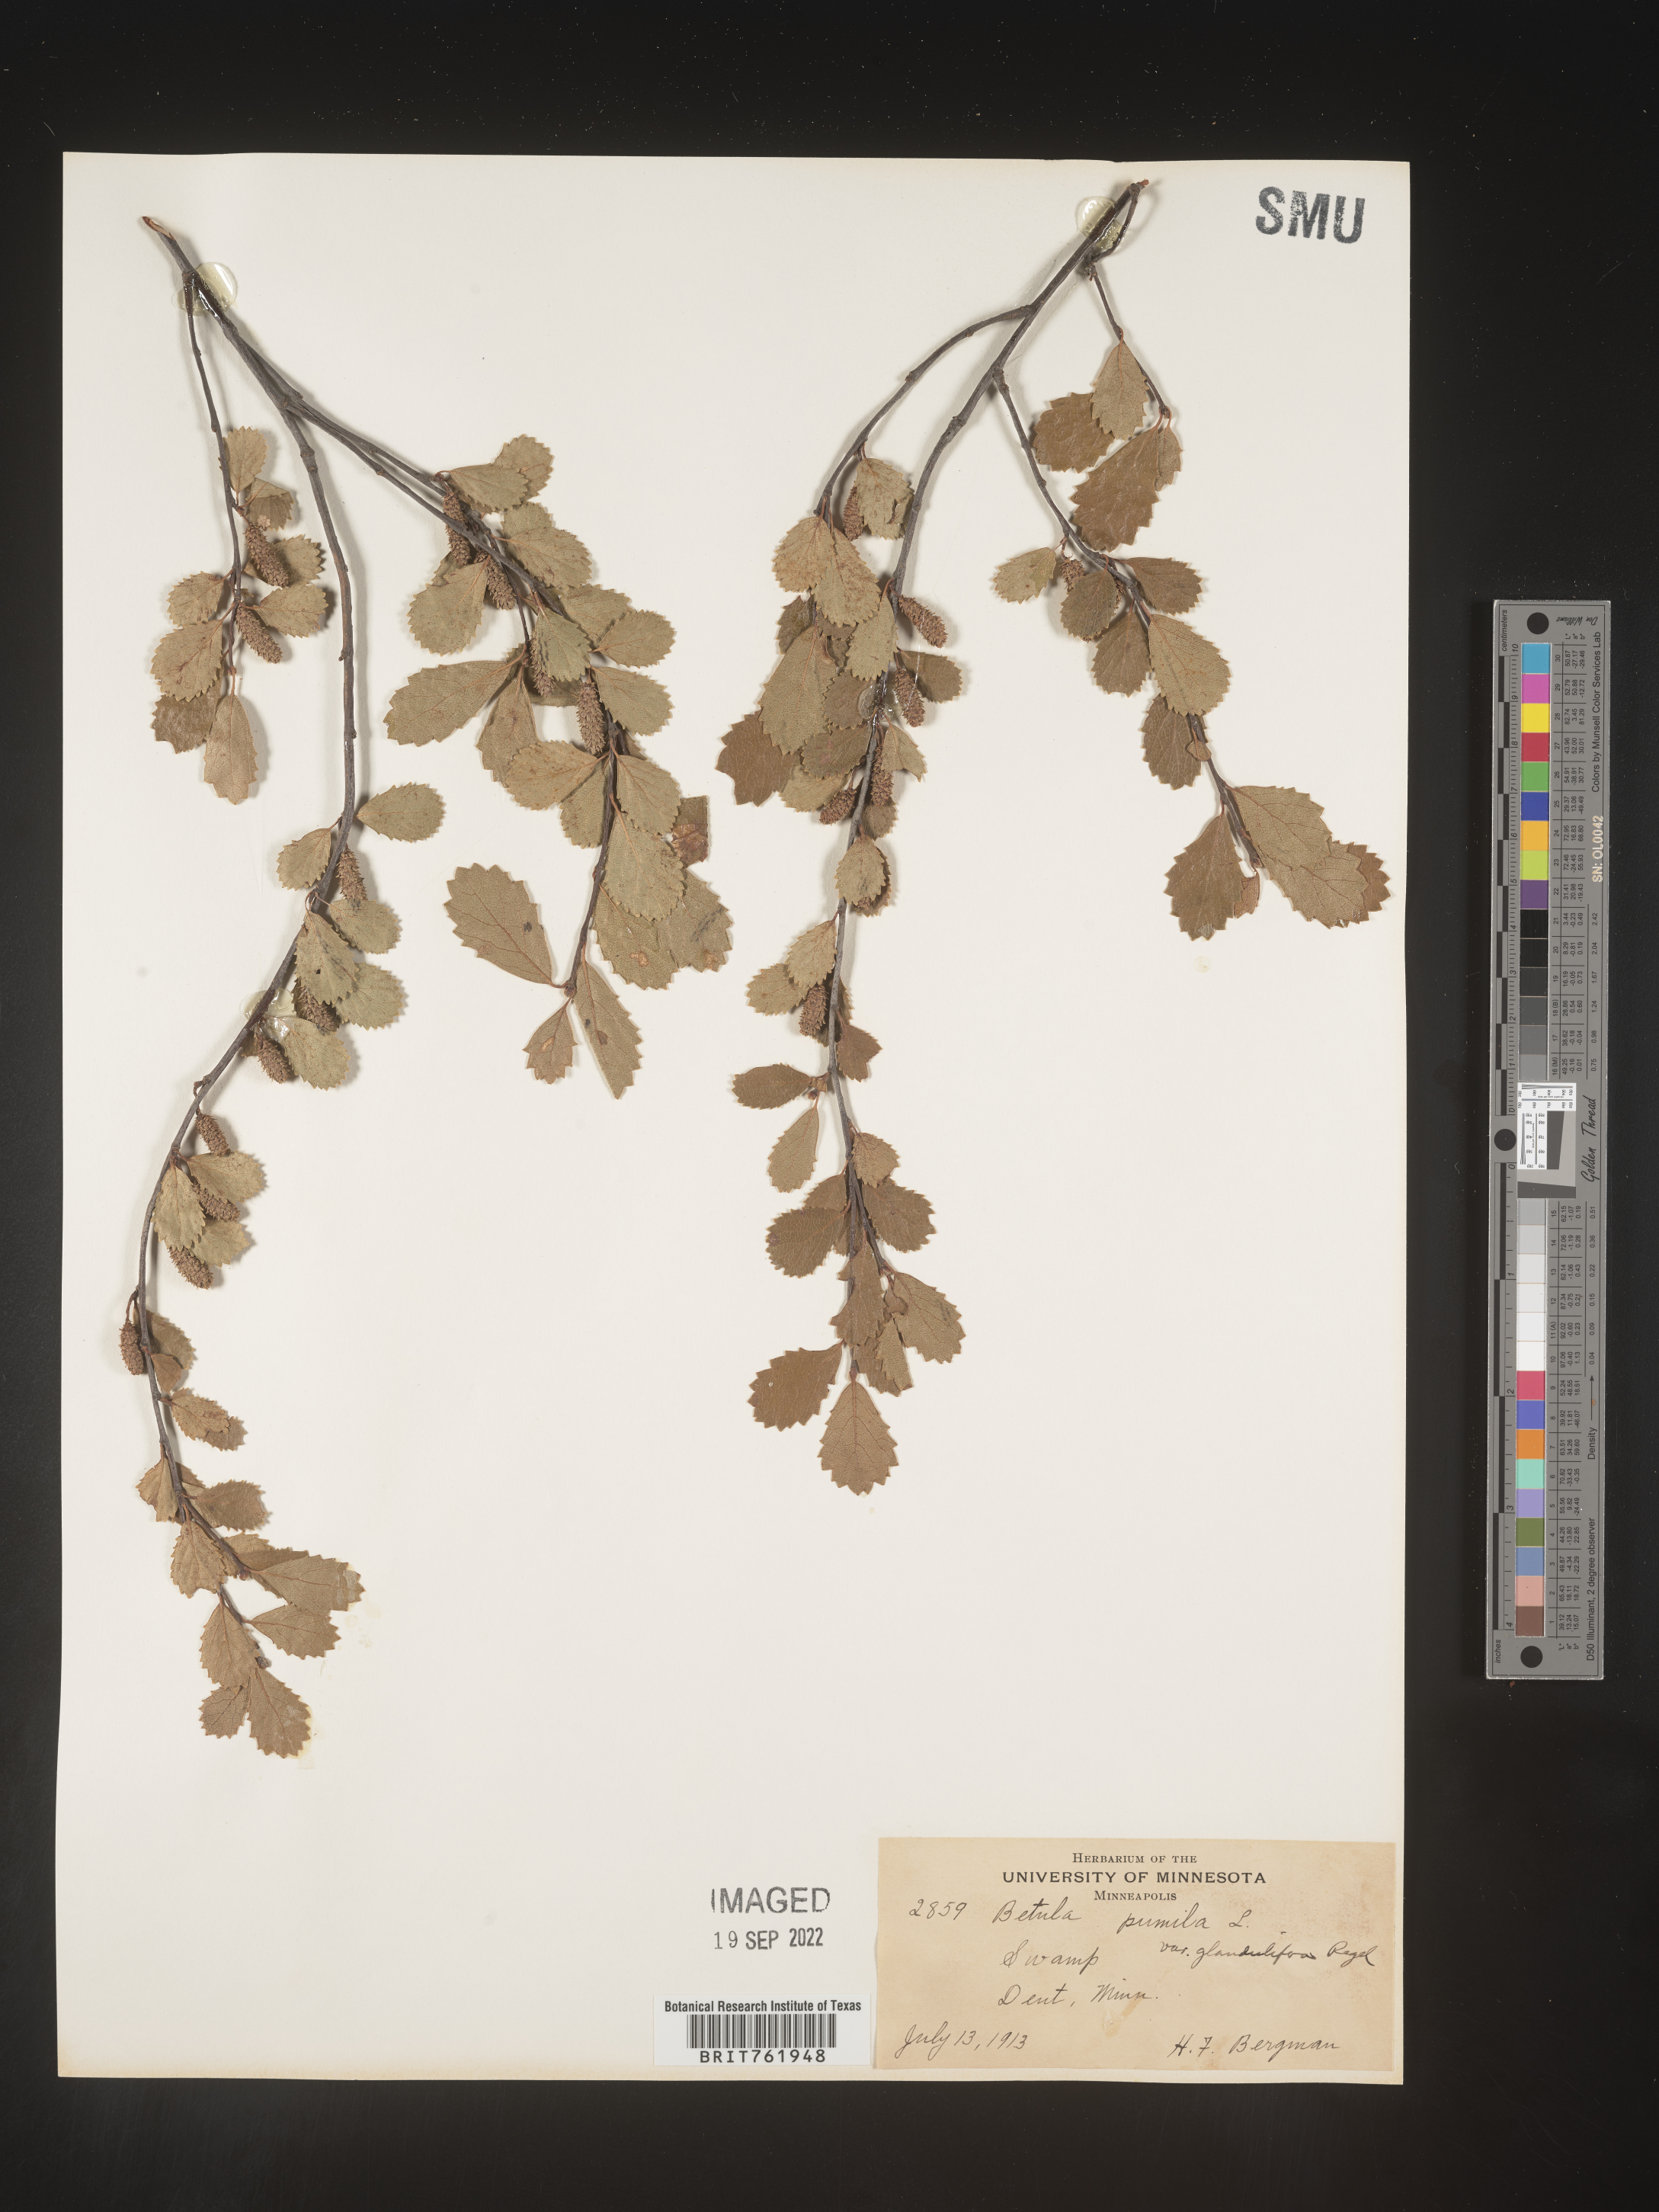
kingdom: Plantae
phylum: Tracheophyta
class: Magnoliopsida
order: Fagales
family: Betulaceae
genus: Betula
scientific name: Betula pumila
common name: Bog birch
